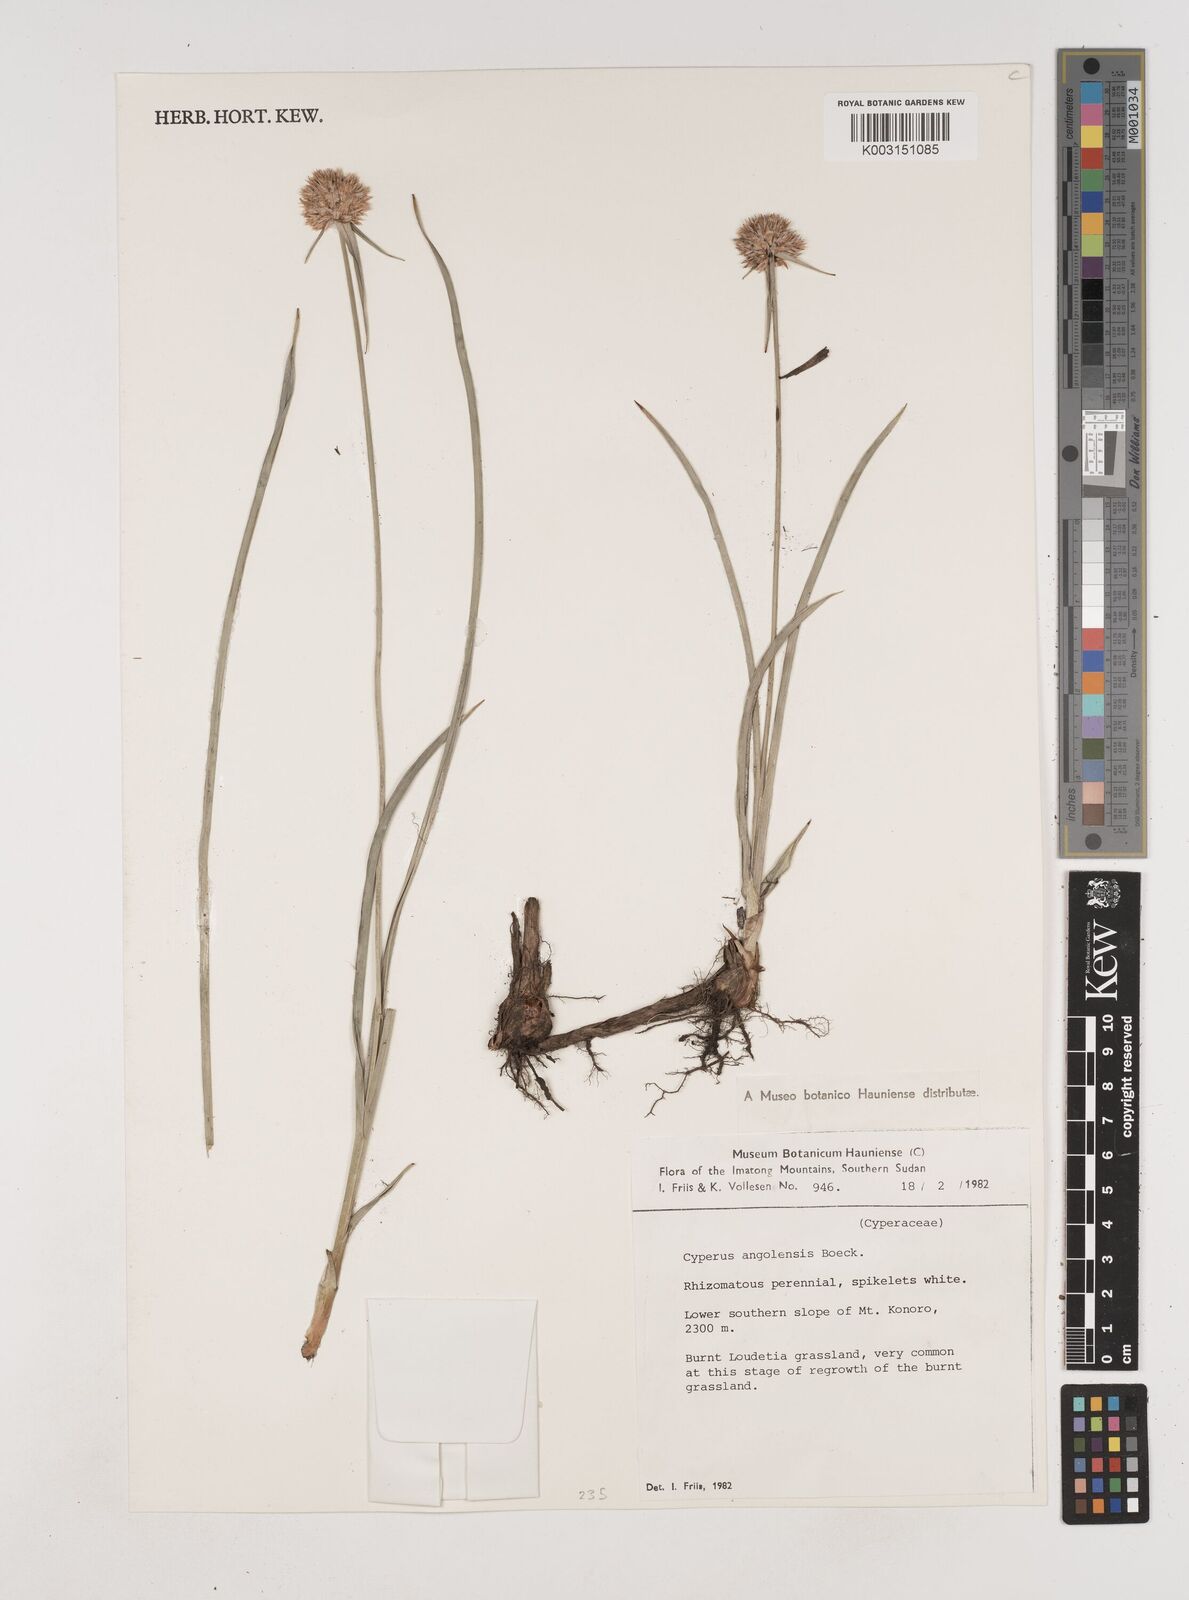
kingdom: Plantae
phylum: Tracheophyta
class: Liliopsida
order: Poales
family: Cyperaceae
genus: Cyperus
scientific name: Cyperus angolensis
